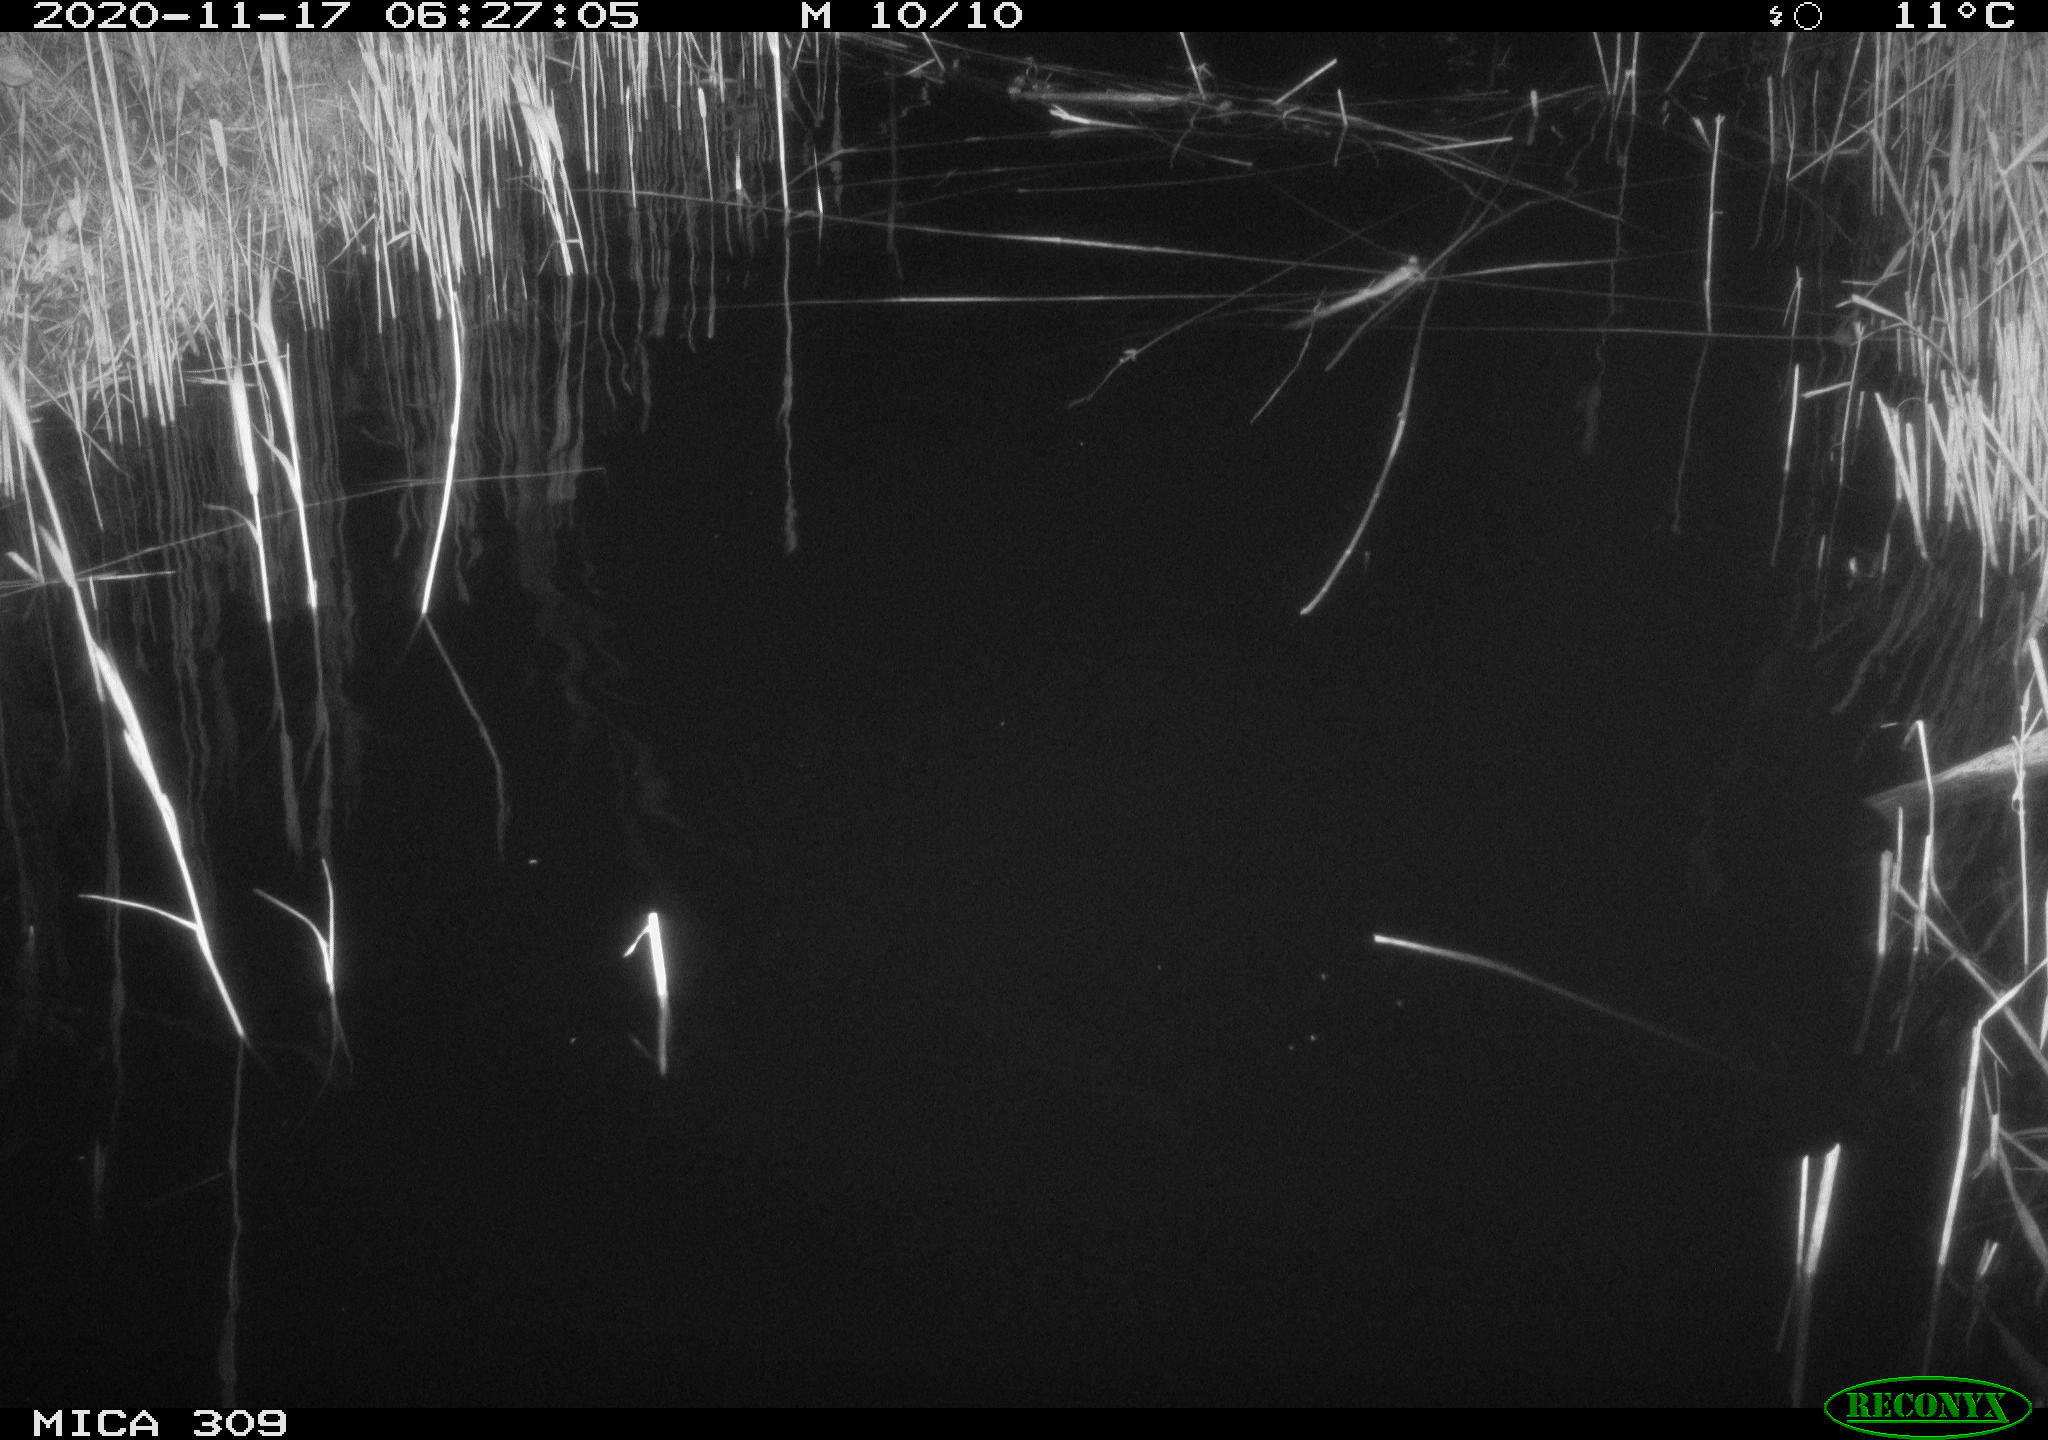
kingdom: Animalia
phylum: Chordata
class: Mammalia
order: Rodentia
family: Muridae
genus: Rattus
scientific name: Rattus norvegicus
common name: Brown rat
